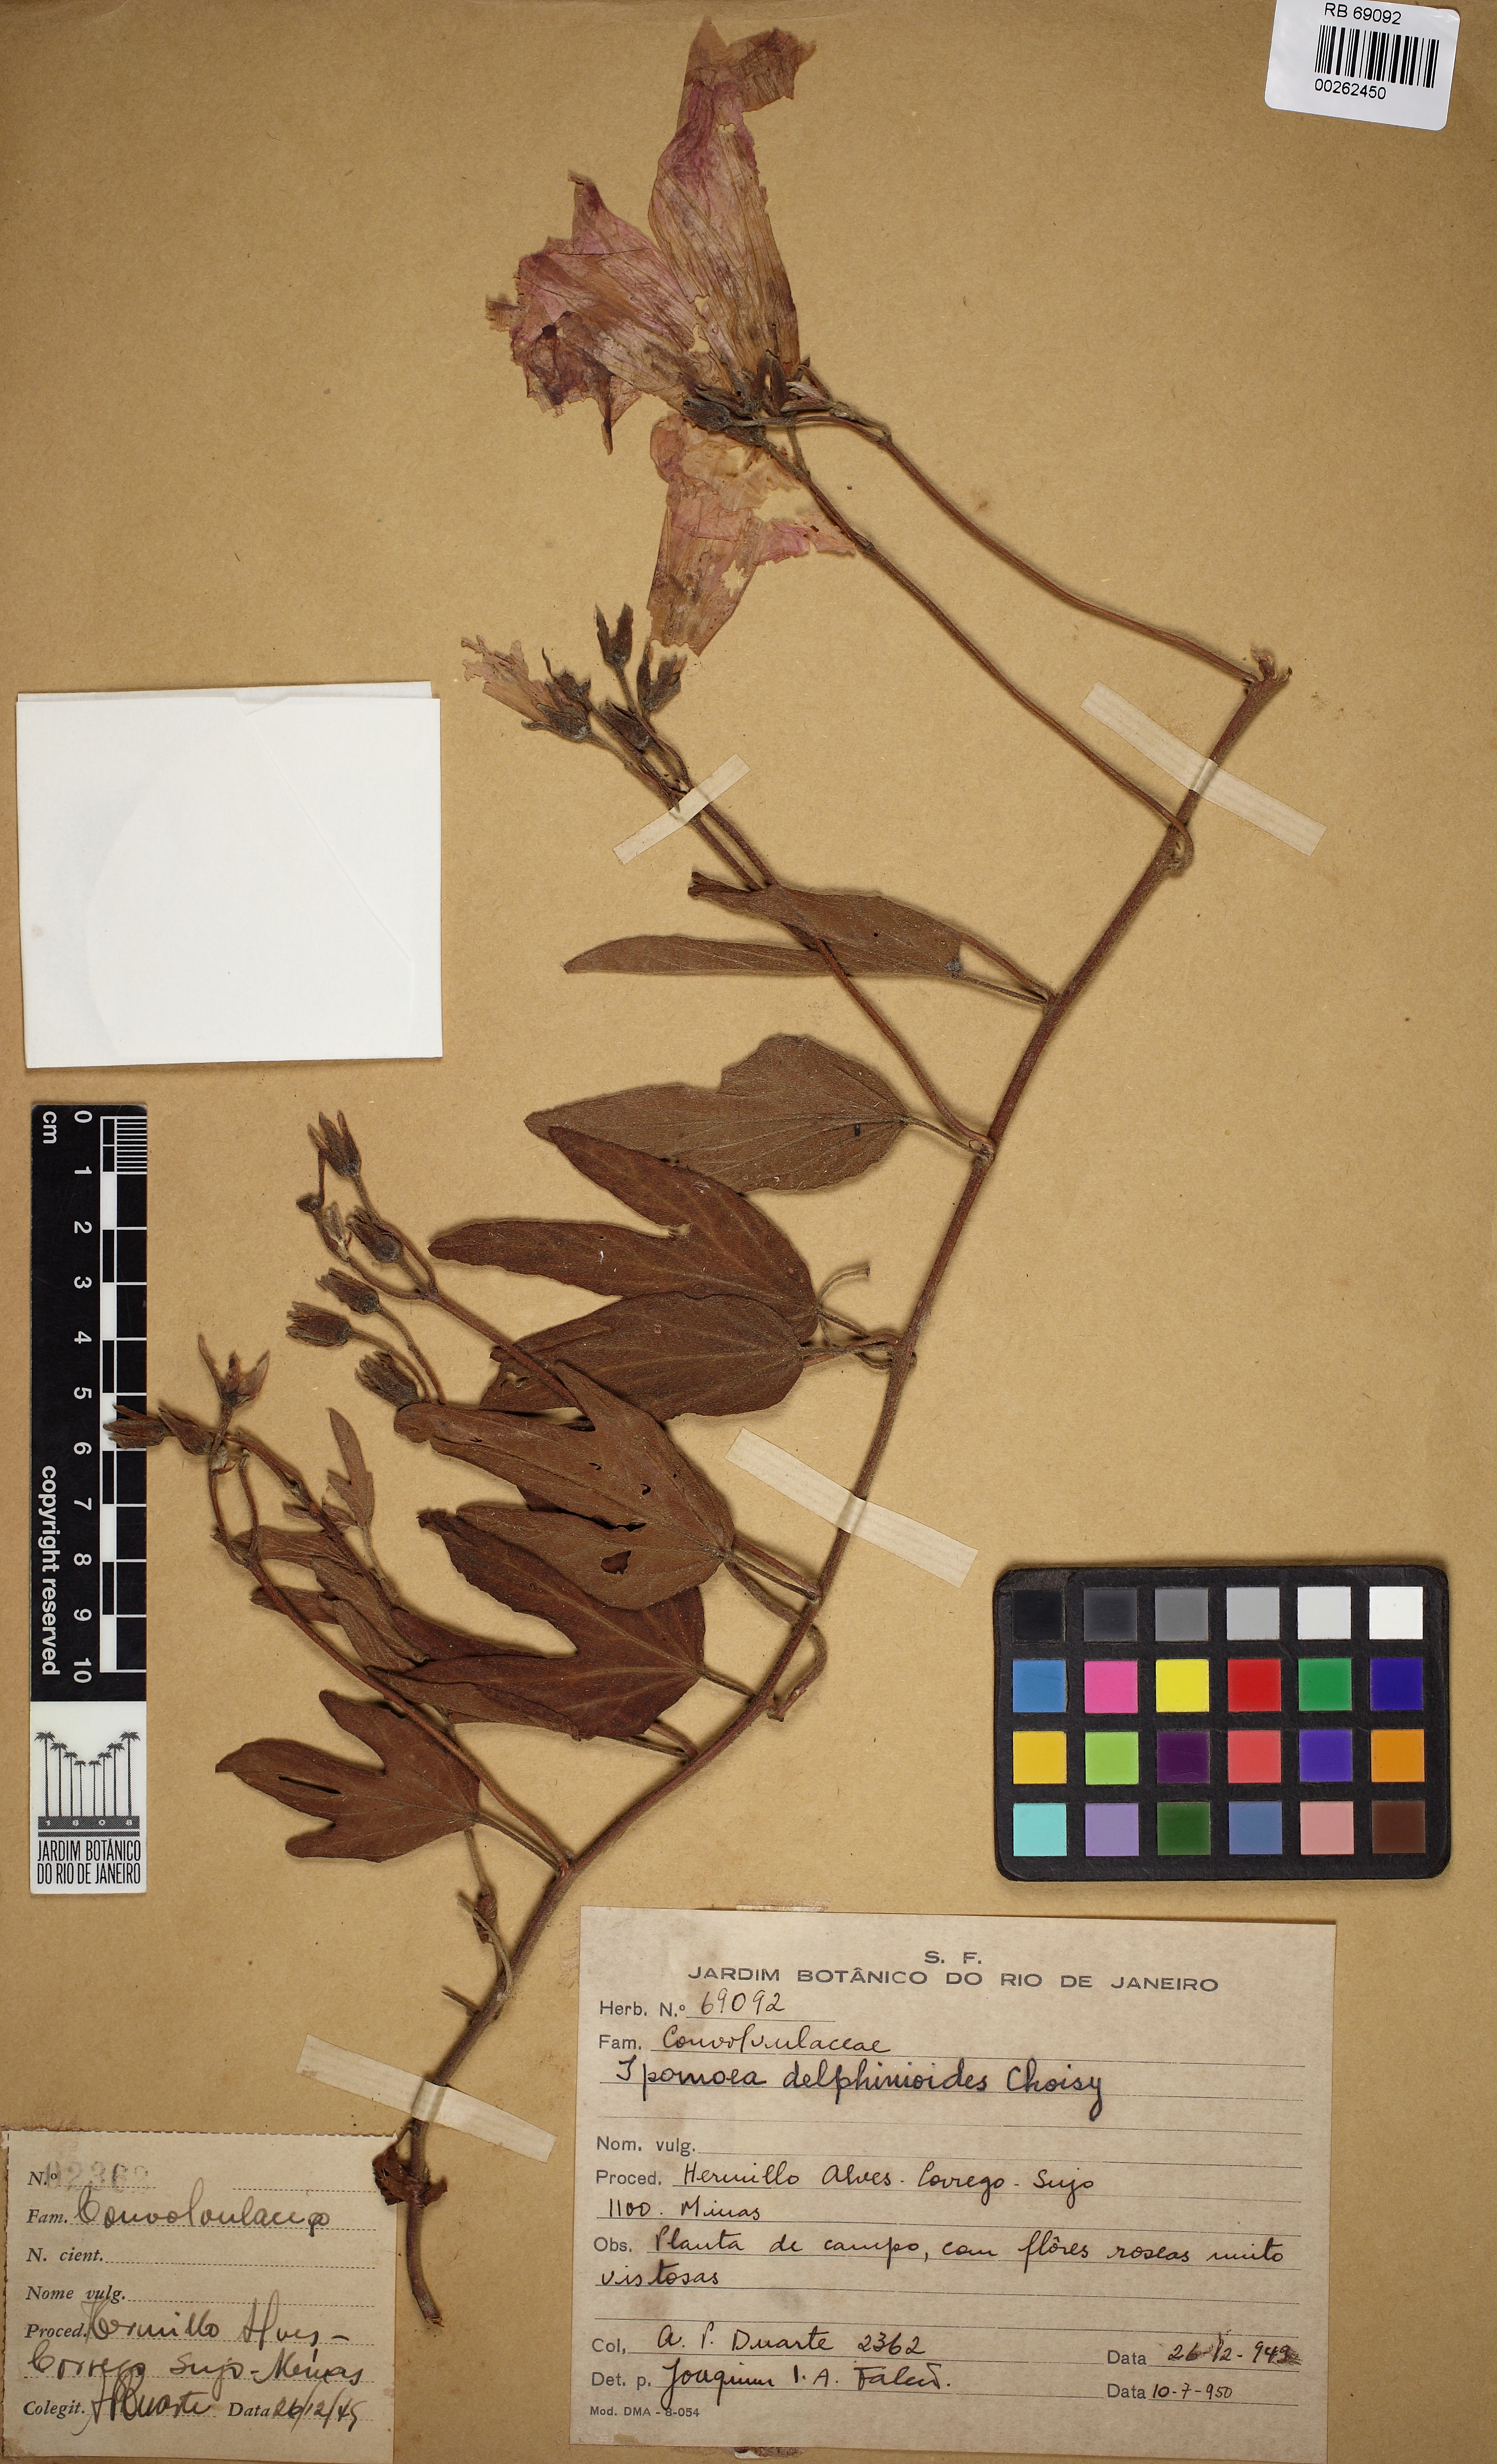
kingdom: Plantae
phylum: Tracheophyta
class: Magnoliopsida
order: Solanales
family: Convolvulaceae
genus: Ipomoea
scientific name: Ipomoea delphinioides
